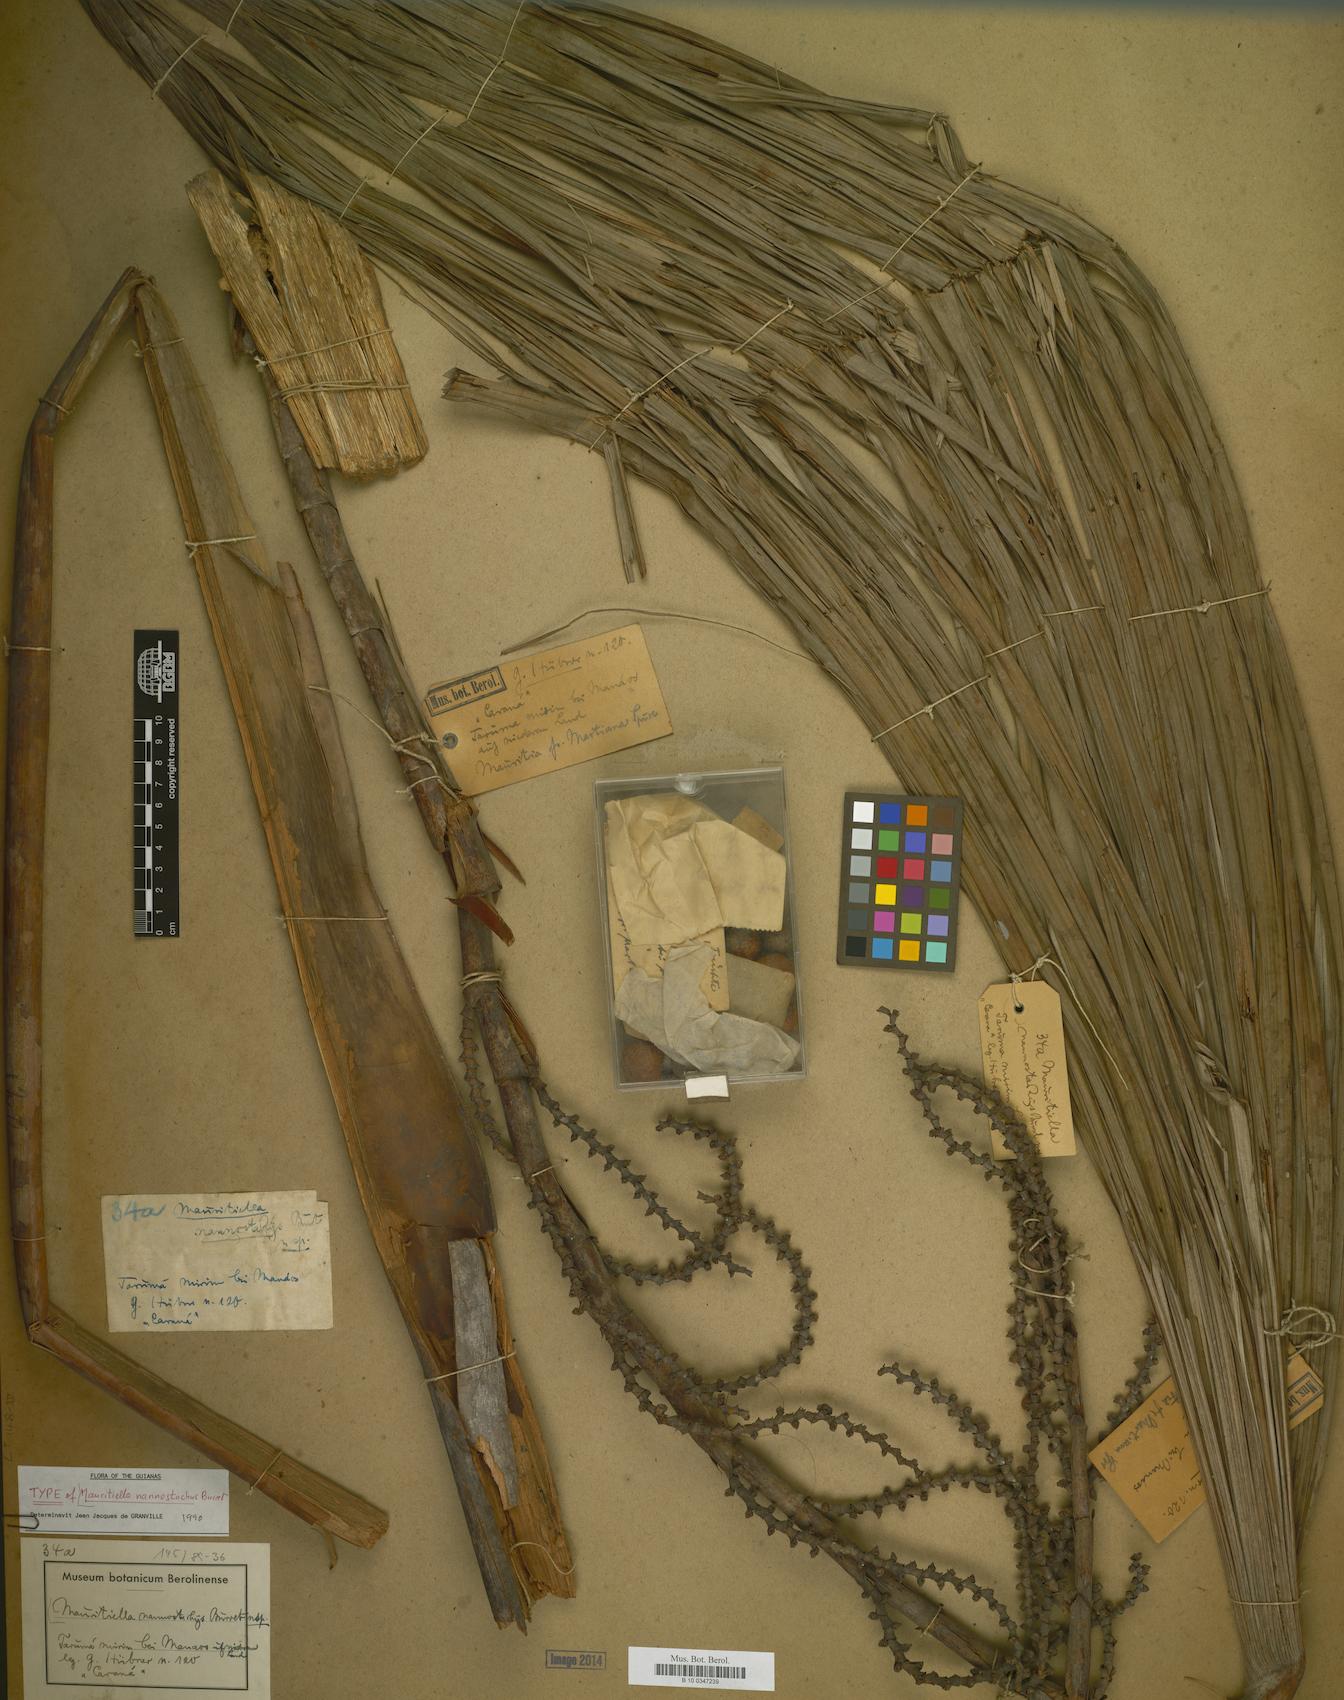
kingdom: Plantae
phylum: Tracheophyta
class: Liliopsida
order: Arecales
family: Arecaceae
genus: Mauritiella
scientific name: Mauritiella armata
